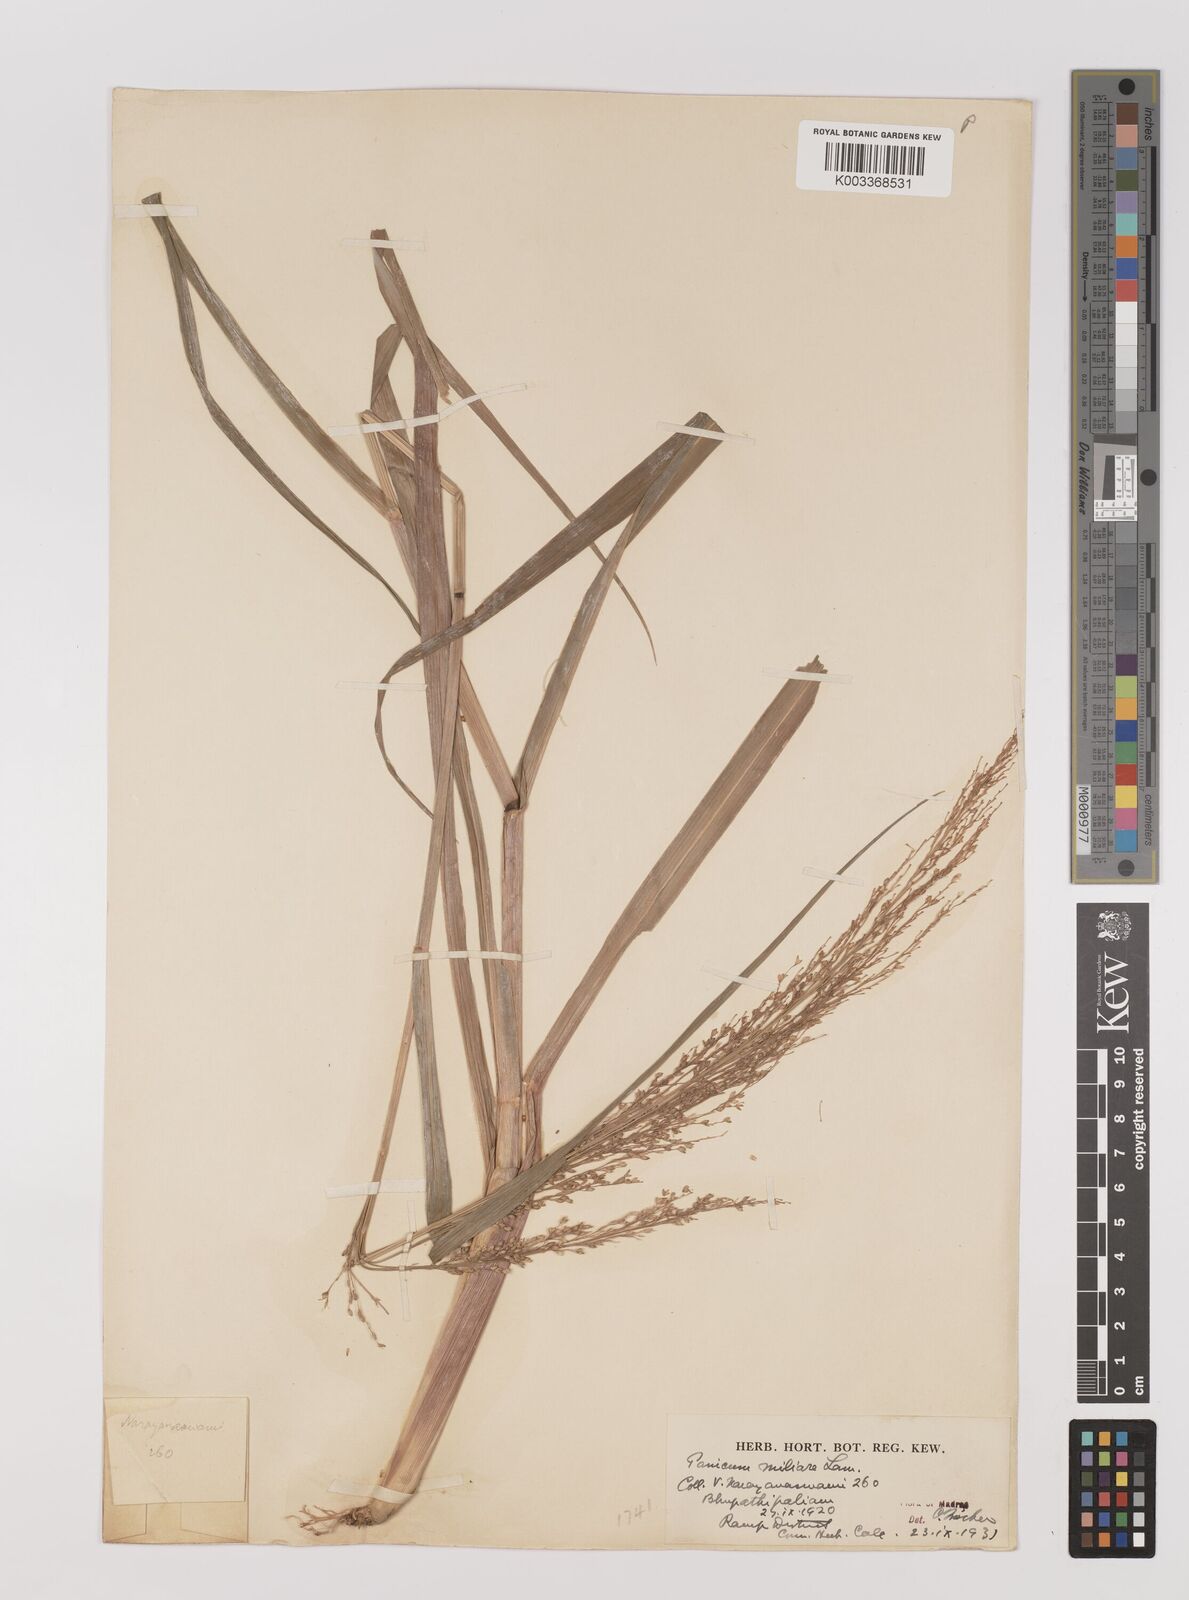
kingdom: Plantae
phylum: Tracheophyta
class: Liliopsida
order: Poales
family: Poaceae
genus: Panicum
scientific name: Panicum sumatrense
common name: Little millet
